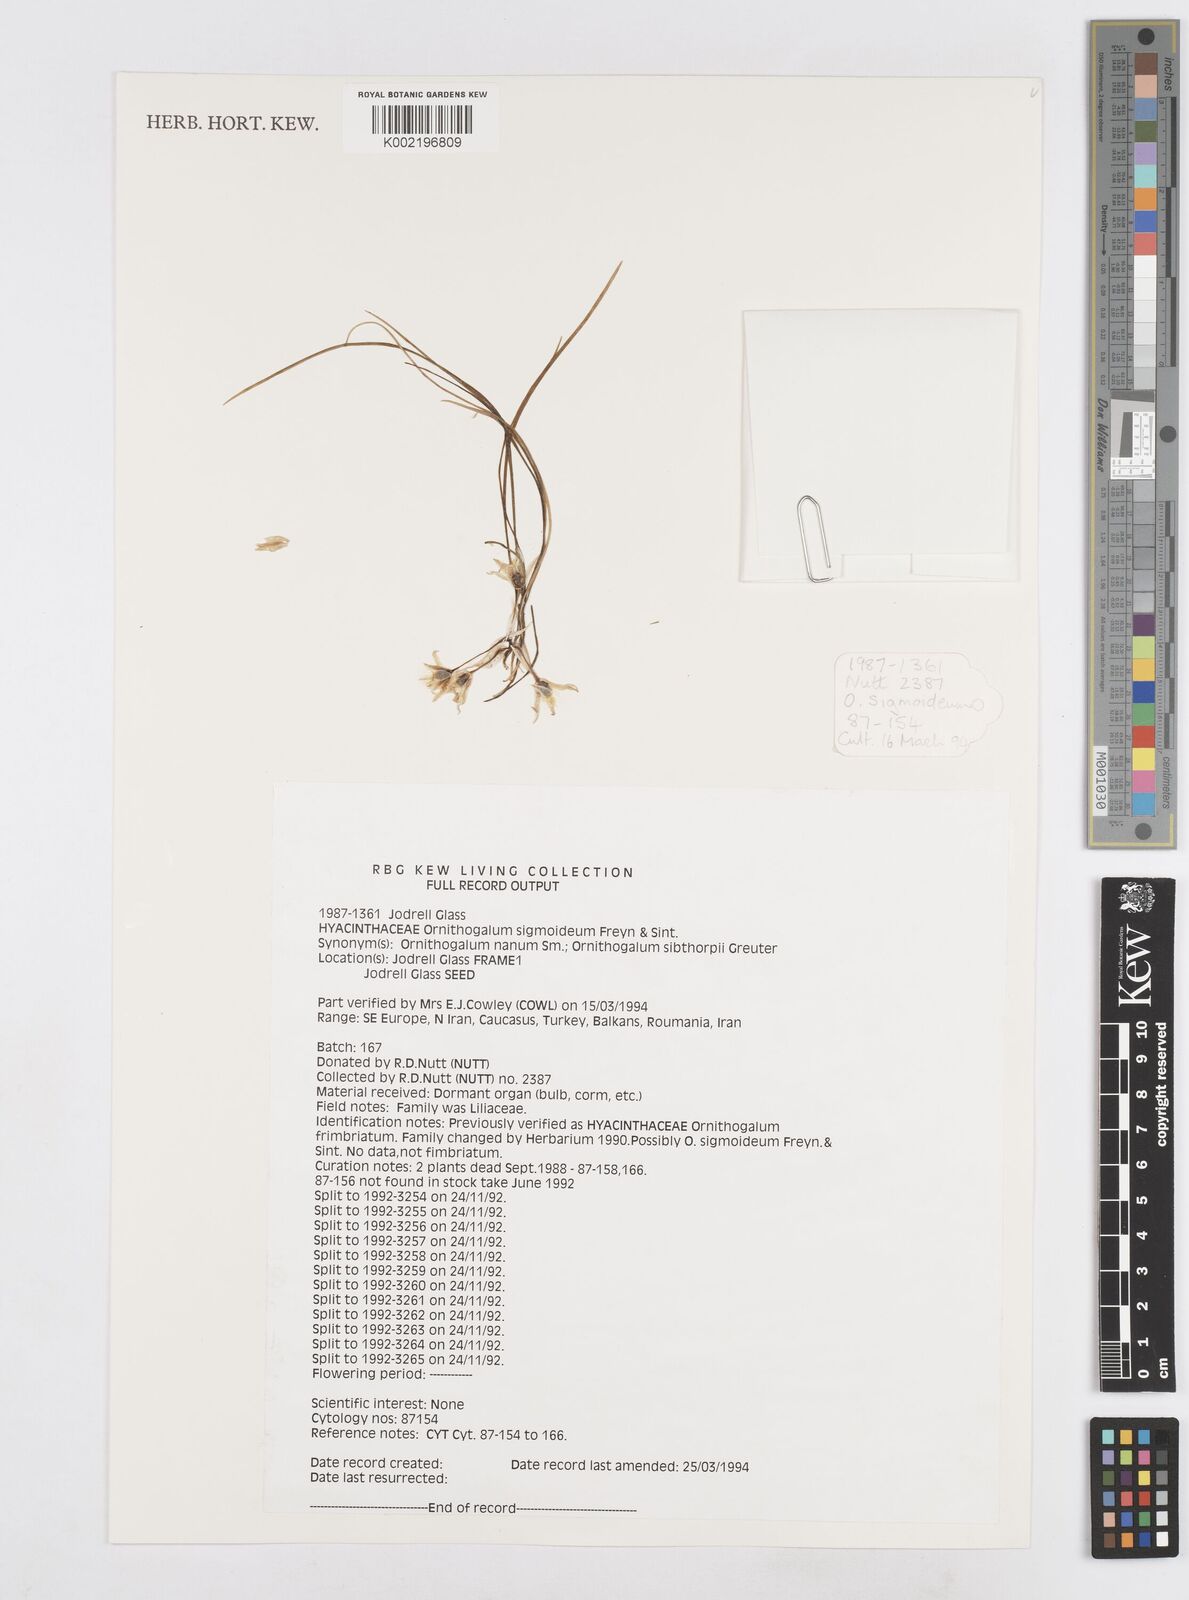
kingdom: Plantae
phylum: Tracheophyta
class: Liliopsida
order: Asparagales
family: Asparagaceae
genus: Ornithogalum
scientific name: Ornithogalum sigmoideum
